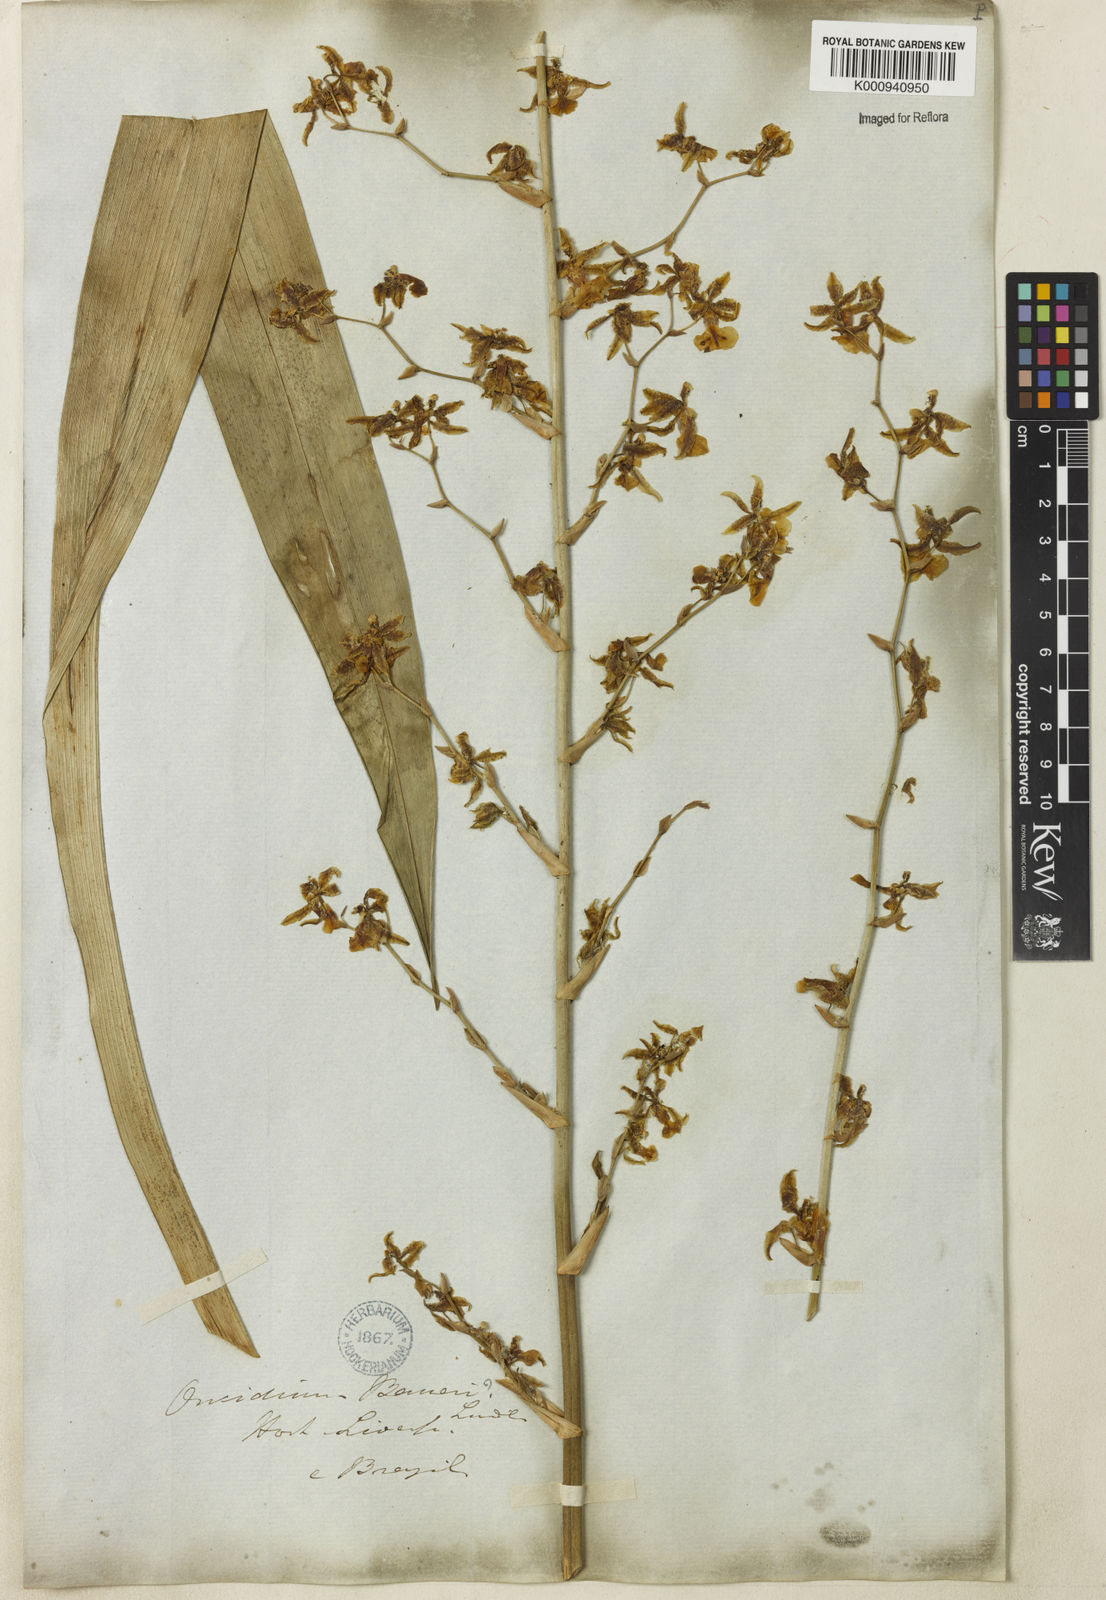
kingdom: Plantae
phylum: Tracheophyta
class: Liliopsida
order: Asparagales
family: Orchidaceae
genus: Oncidium
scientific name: Oncidium baueri
